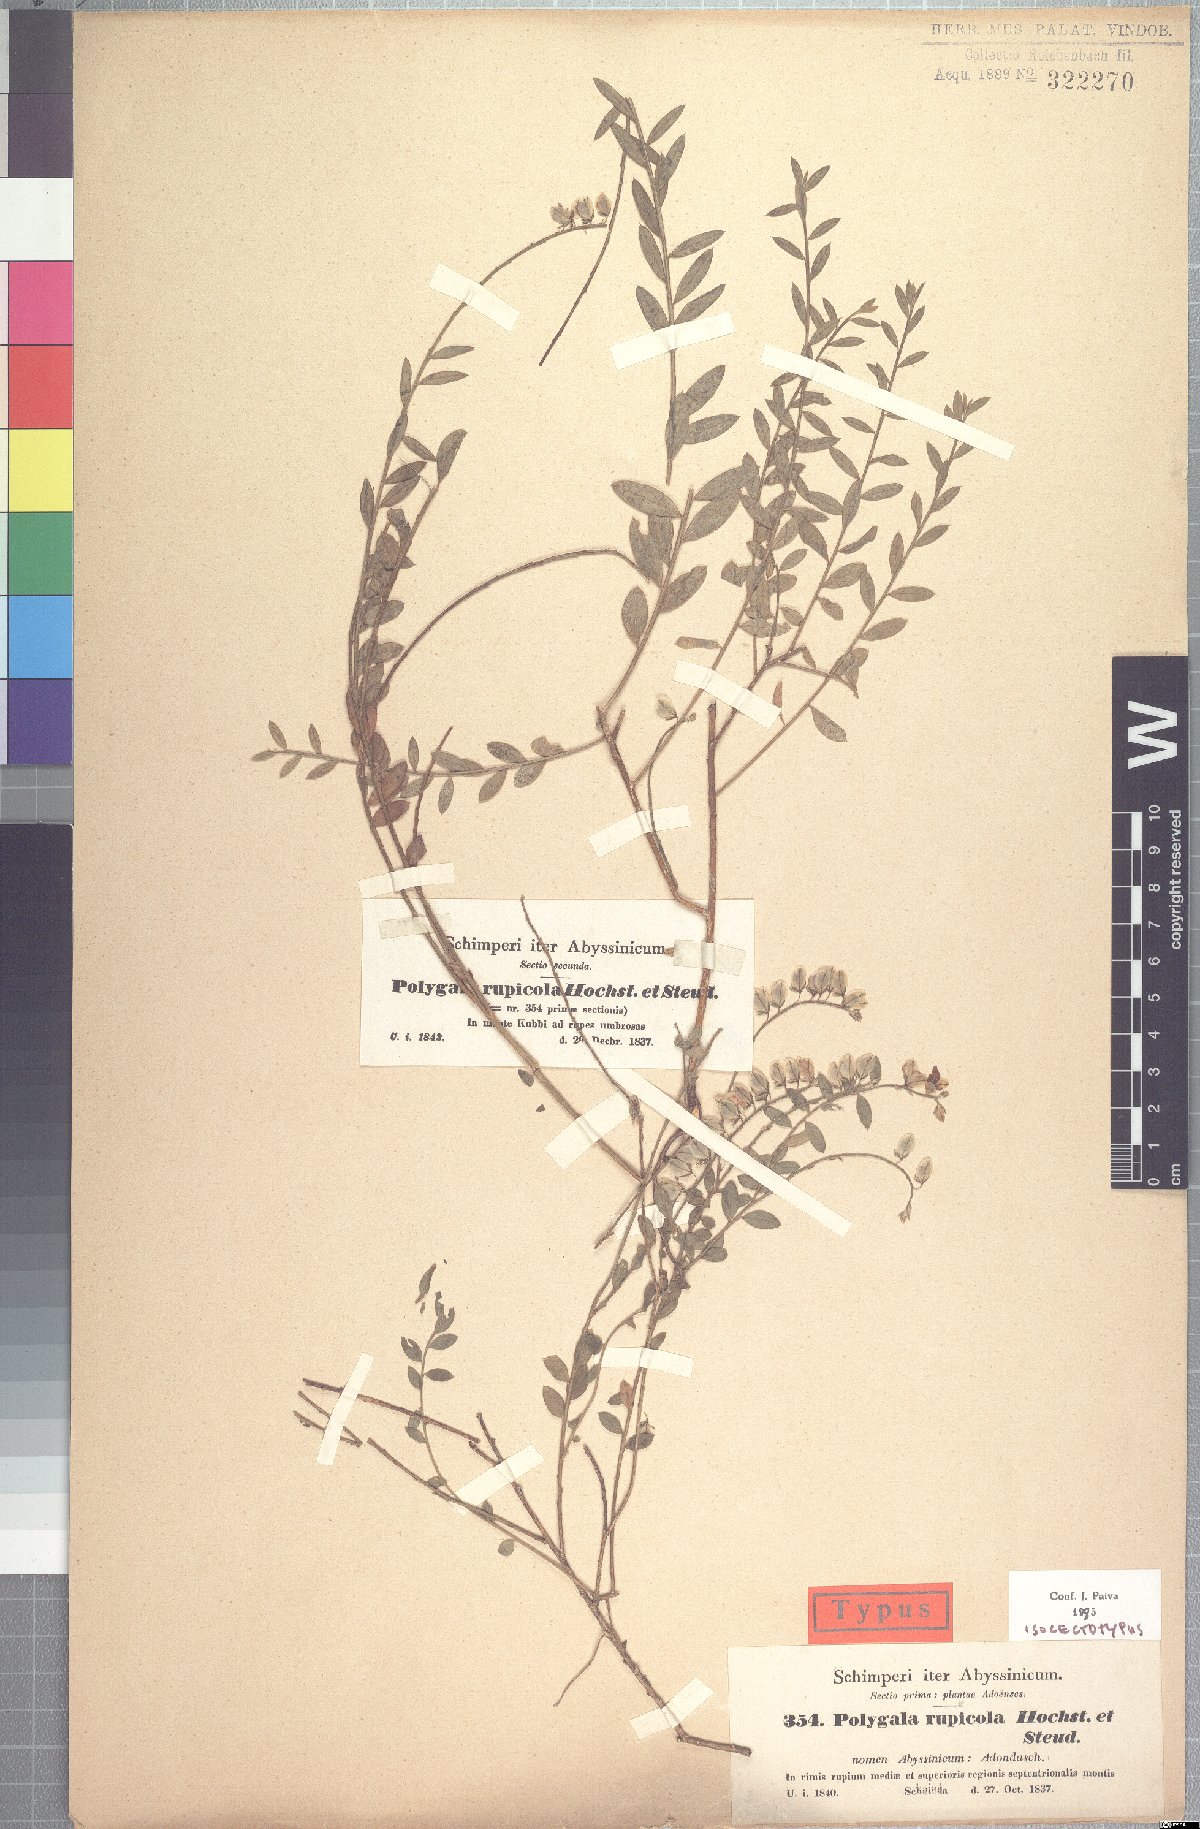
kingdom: Plantae
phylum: Tracheophyta
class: Magnoliopsida
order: Fabales
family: Polygalaceae
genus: Polygala
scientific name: Polygala rupicola
